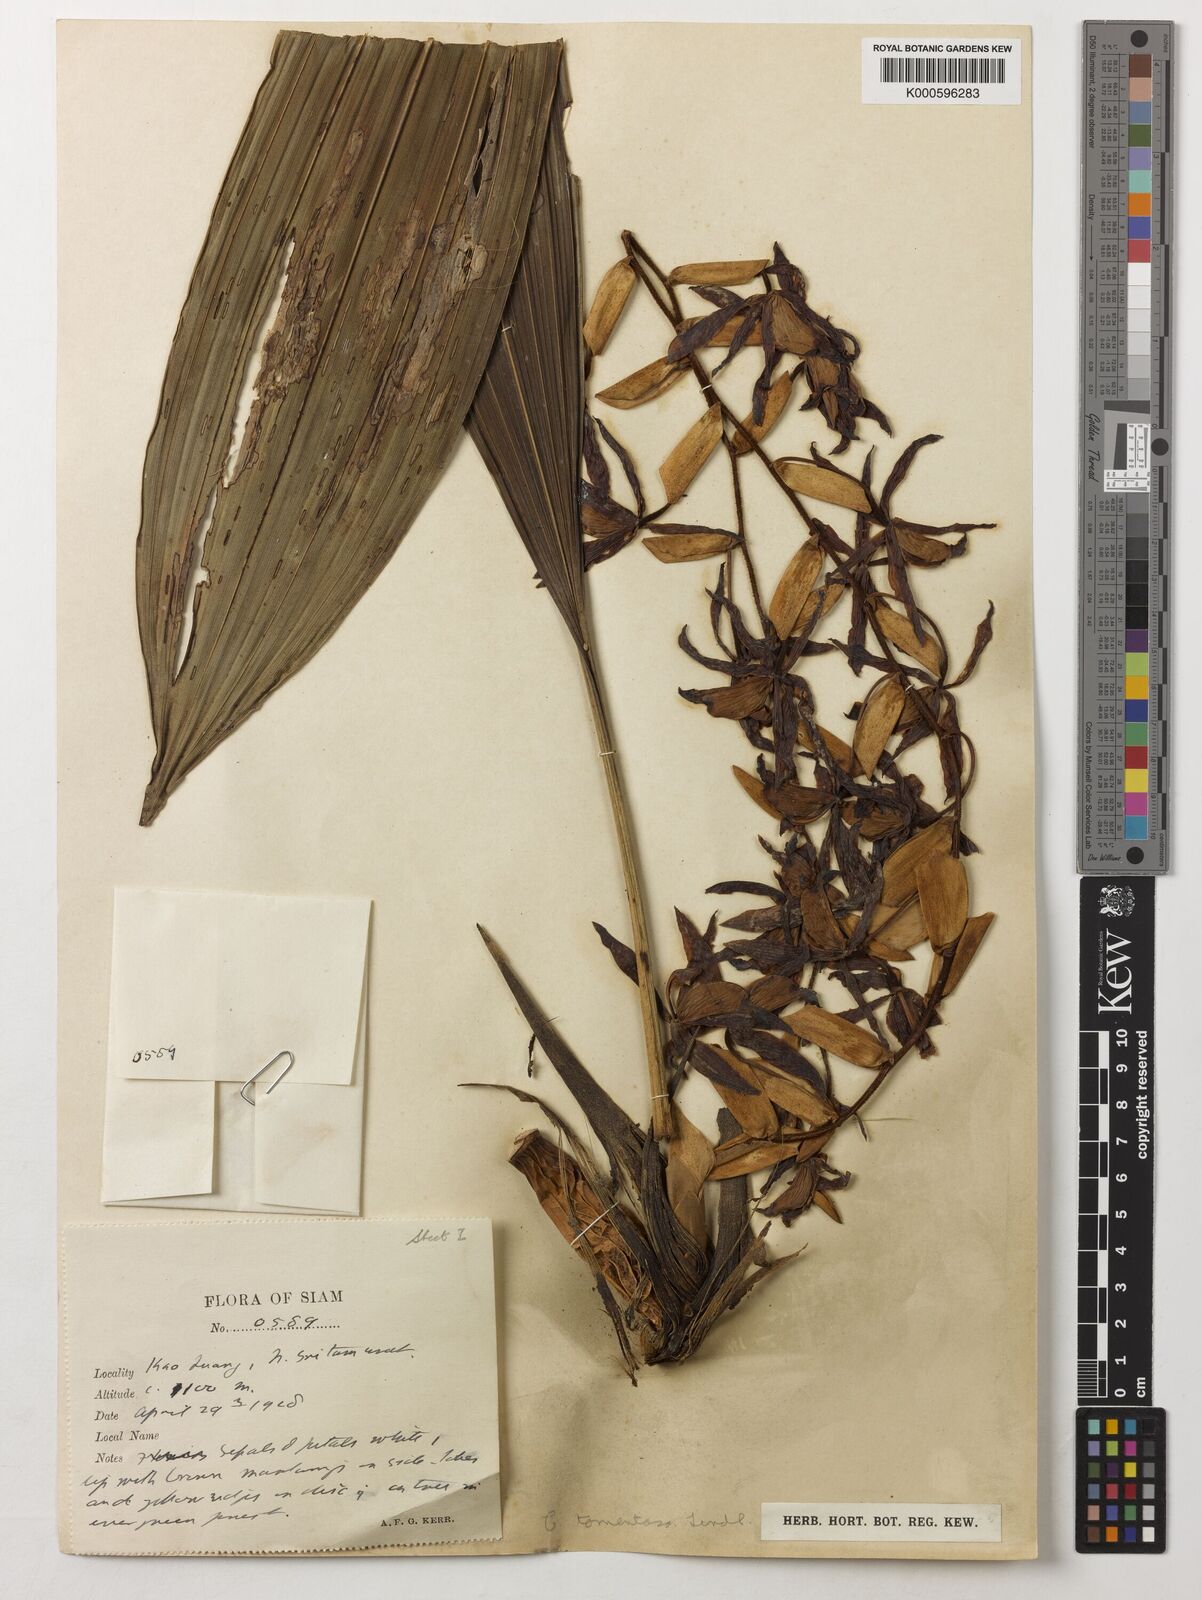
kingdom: Plantae
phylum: Tracheophyta
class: Liliopsida
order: Asparagales
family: Orchidaceae
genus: Coelogyne
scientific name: Coelogyne tomentosa
